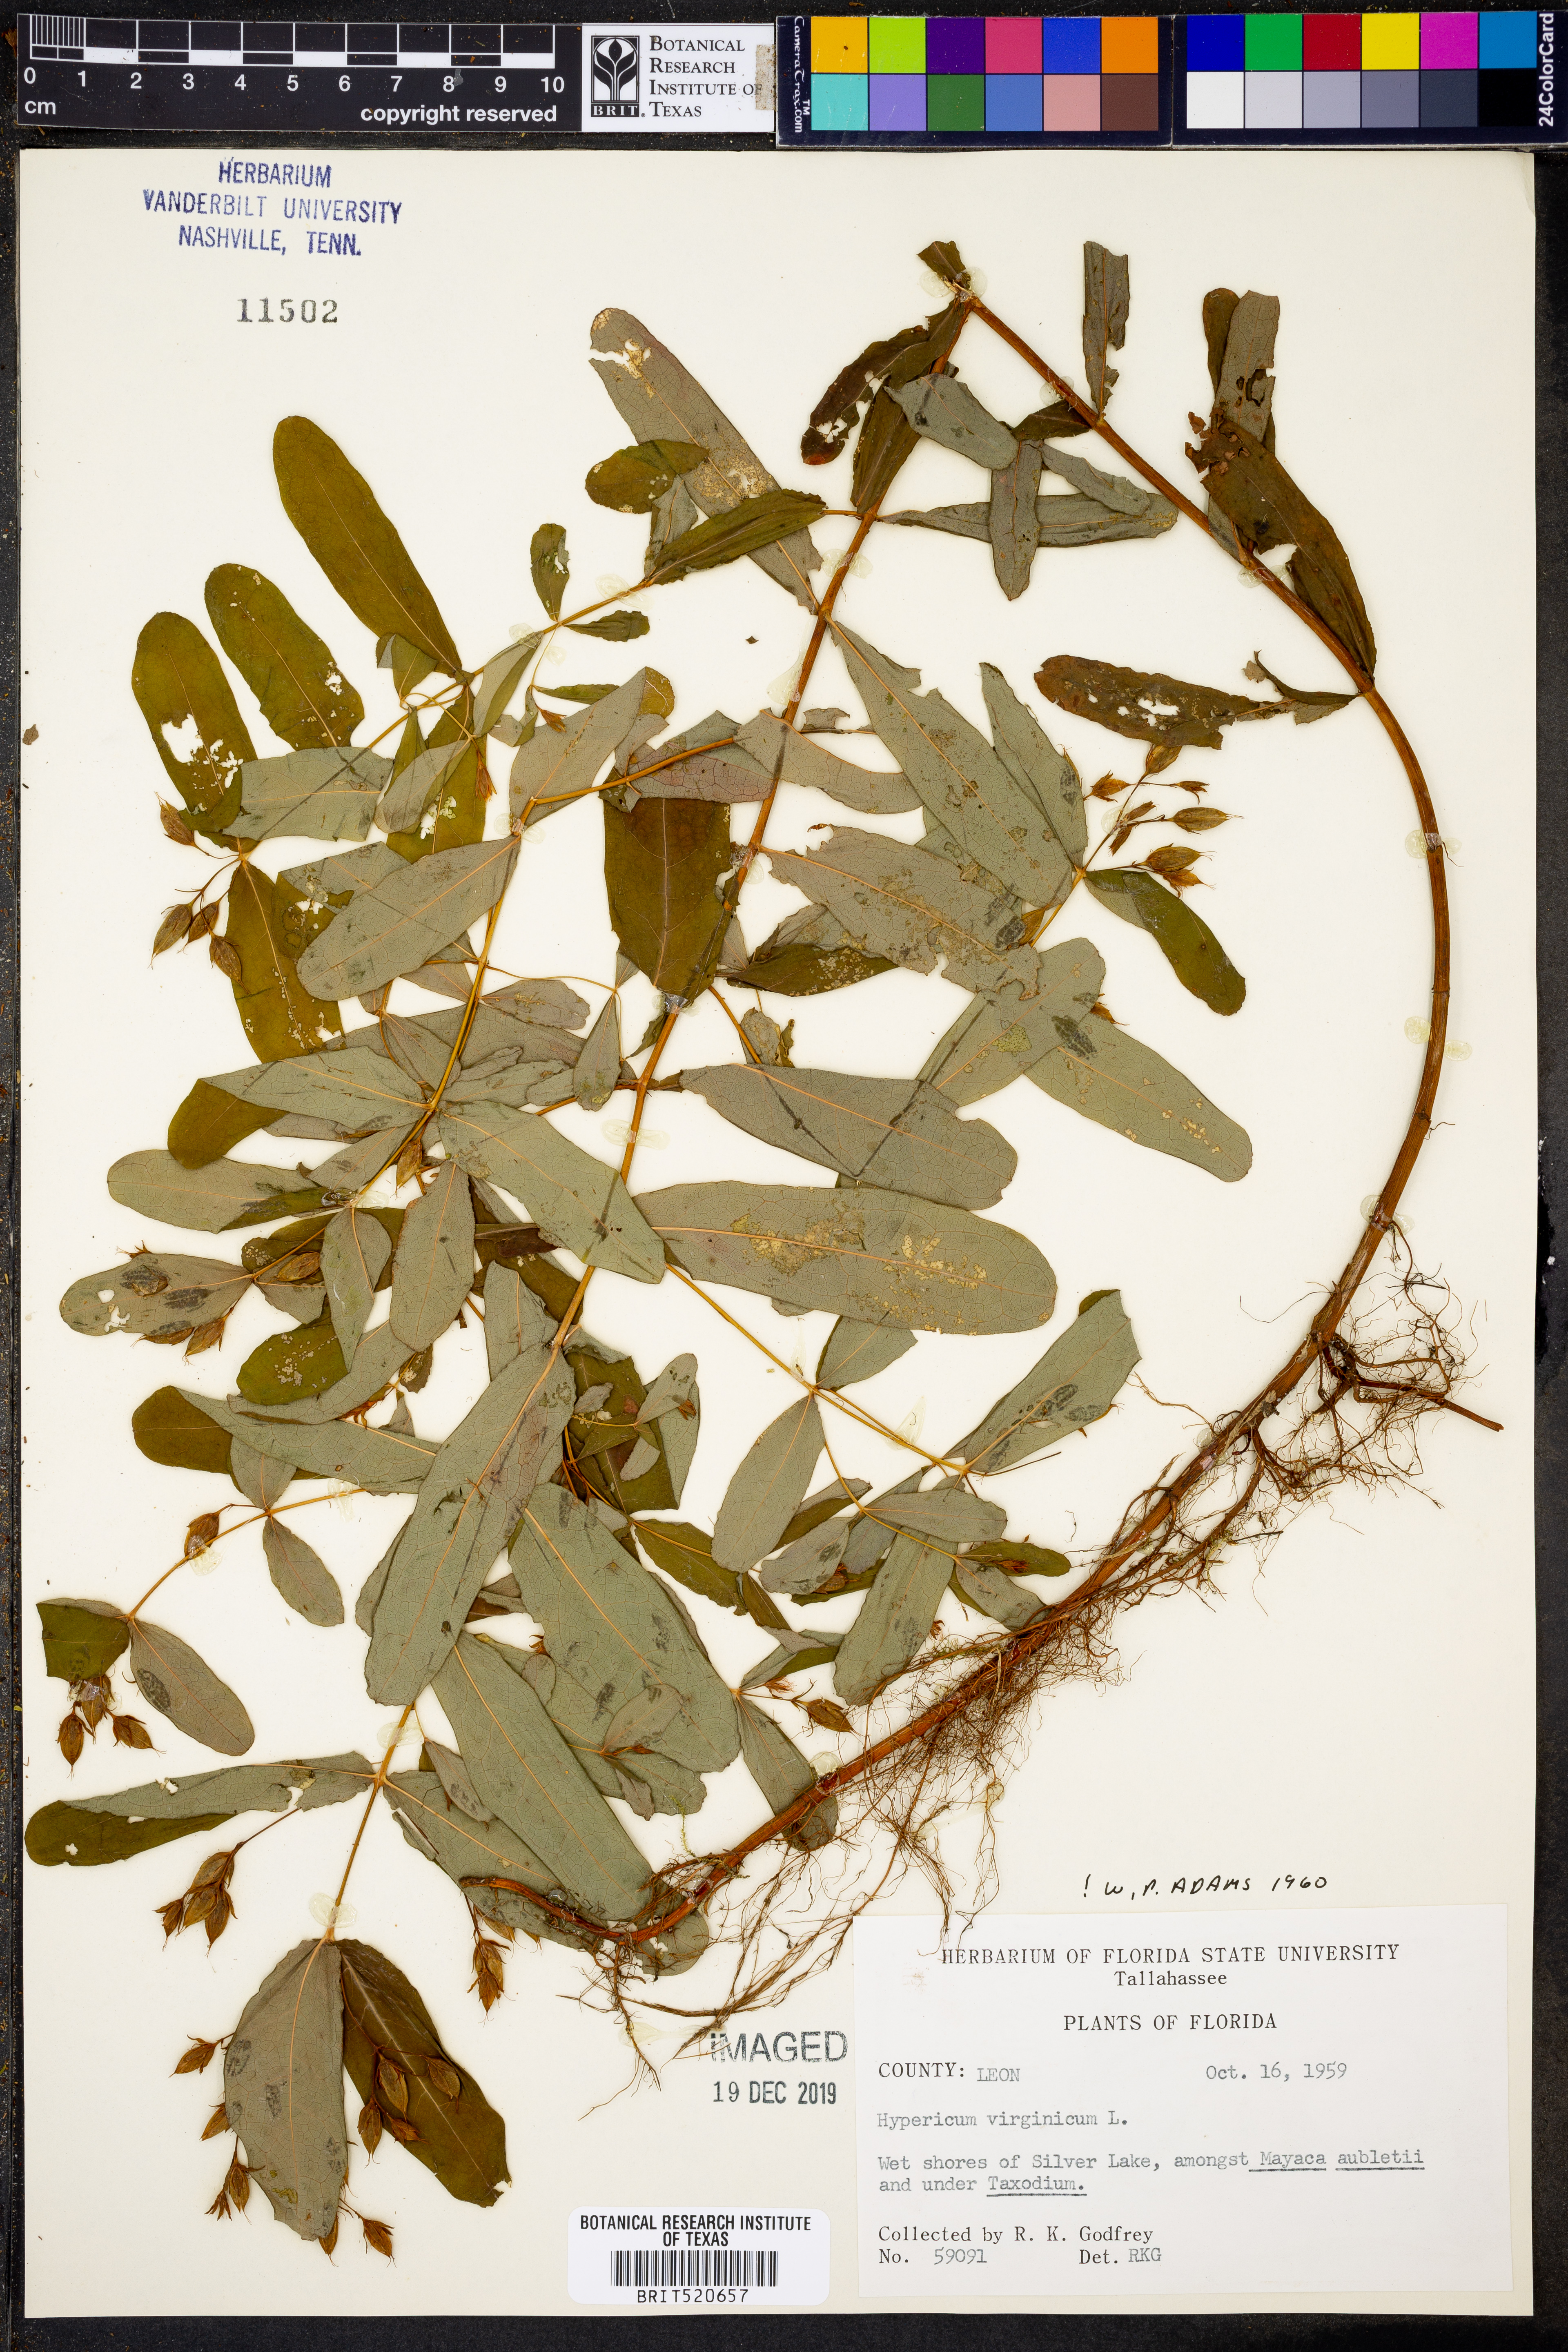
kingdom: Plantae
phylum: Tracheophyta
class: Magnoliopsida
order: Malpighiales
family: Hypericaceae
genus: Triadenum
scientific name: Triadenum virginicum
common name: Marsh st. john's-wort
